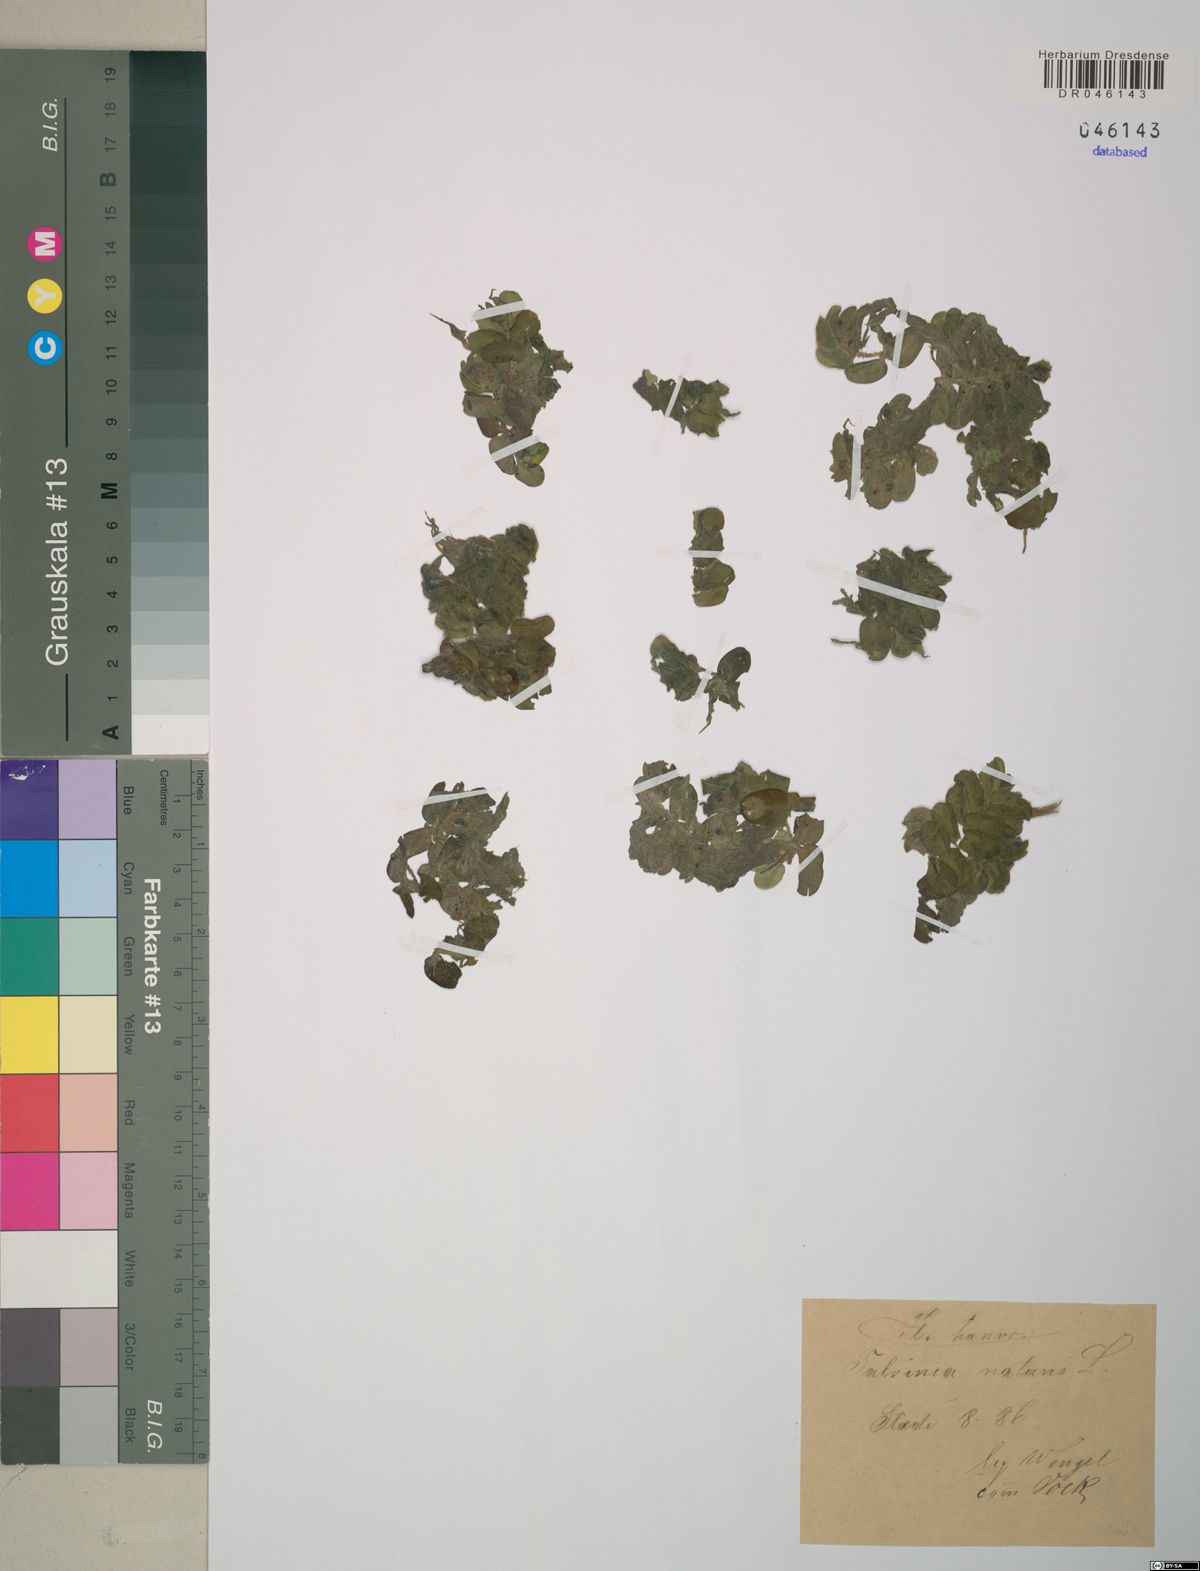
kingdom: Plantae
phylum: Tracheophyta
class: Polypodiopsida
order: Salviniales
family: Salviniaceae
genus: Salvinia
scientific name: Salvinia natans
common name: Floating fern
